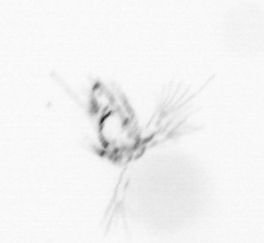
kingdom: Animalia
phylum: Arthropoda
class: Copepoda
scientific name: Copepoda
